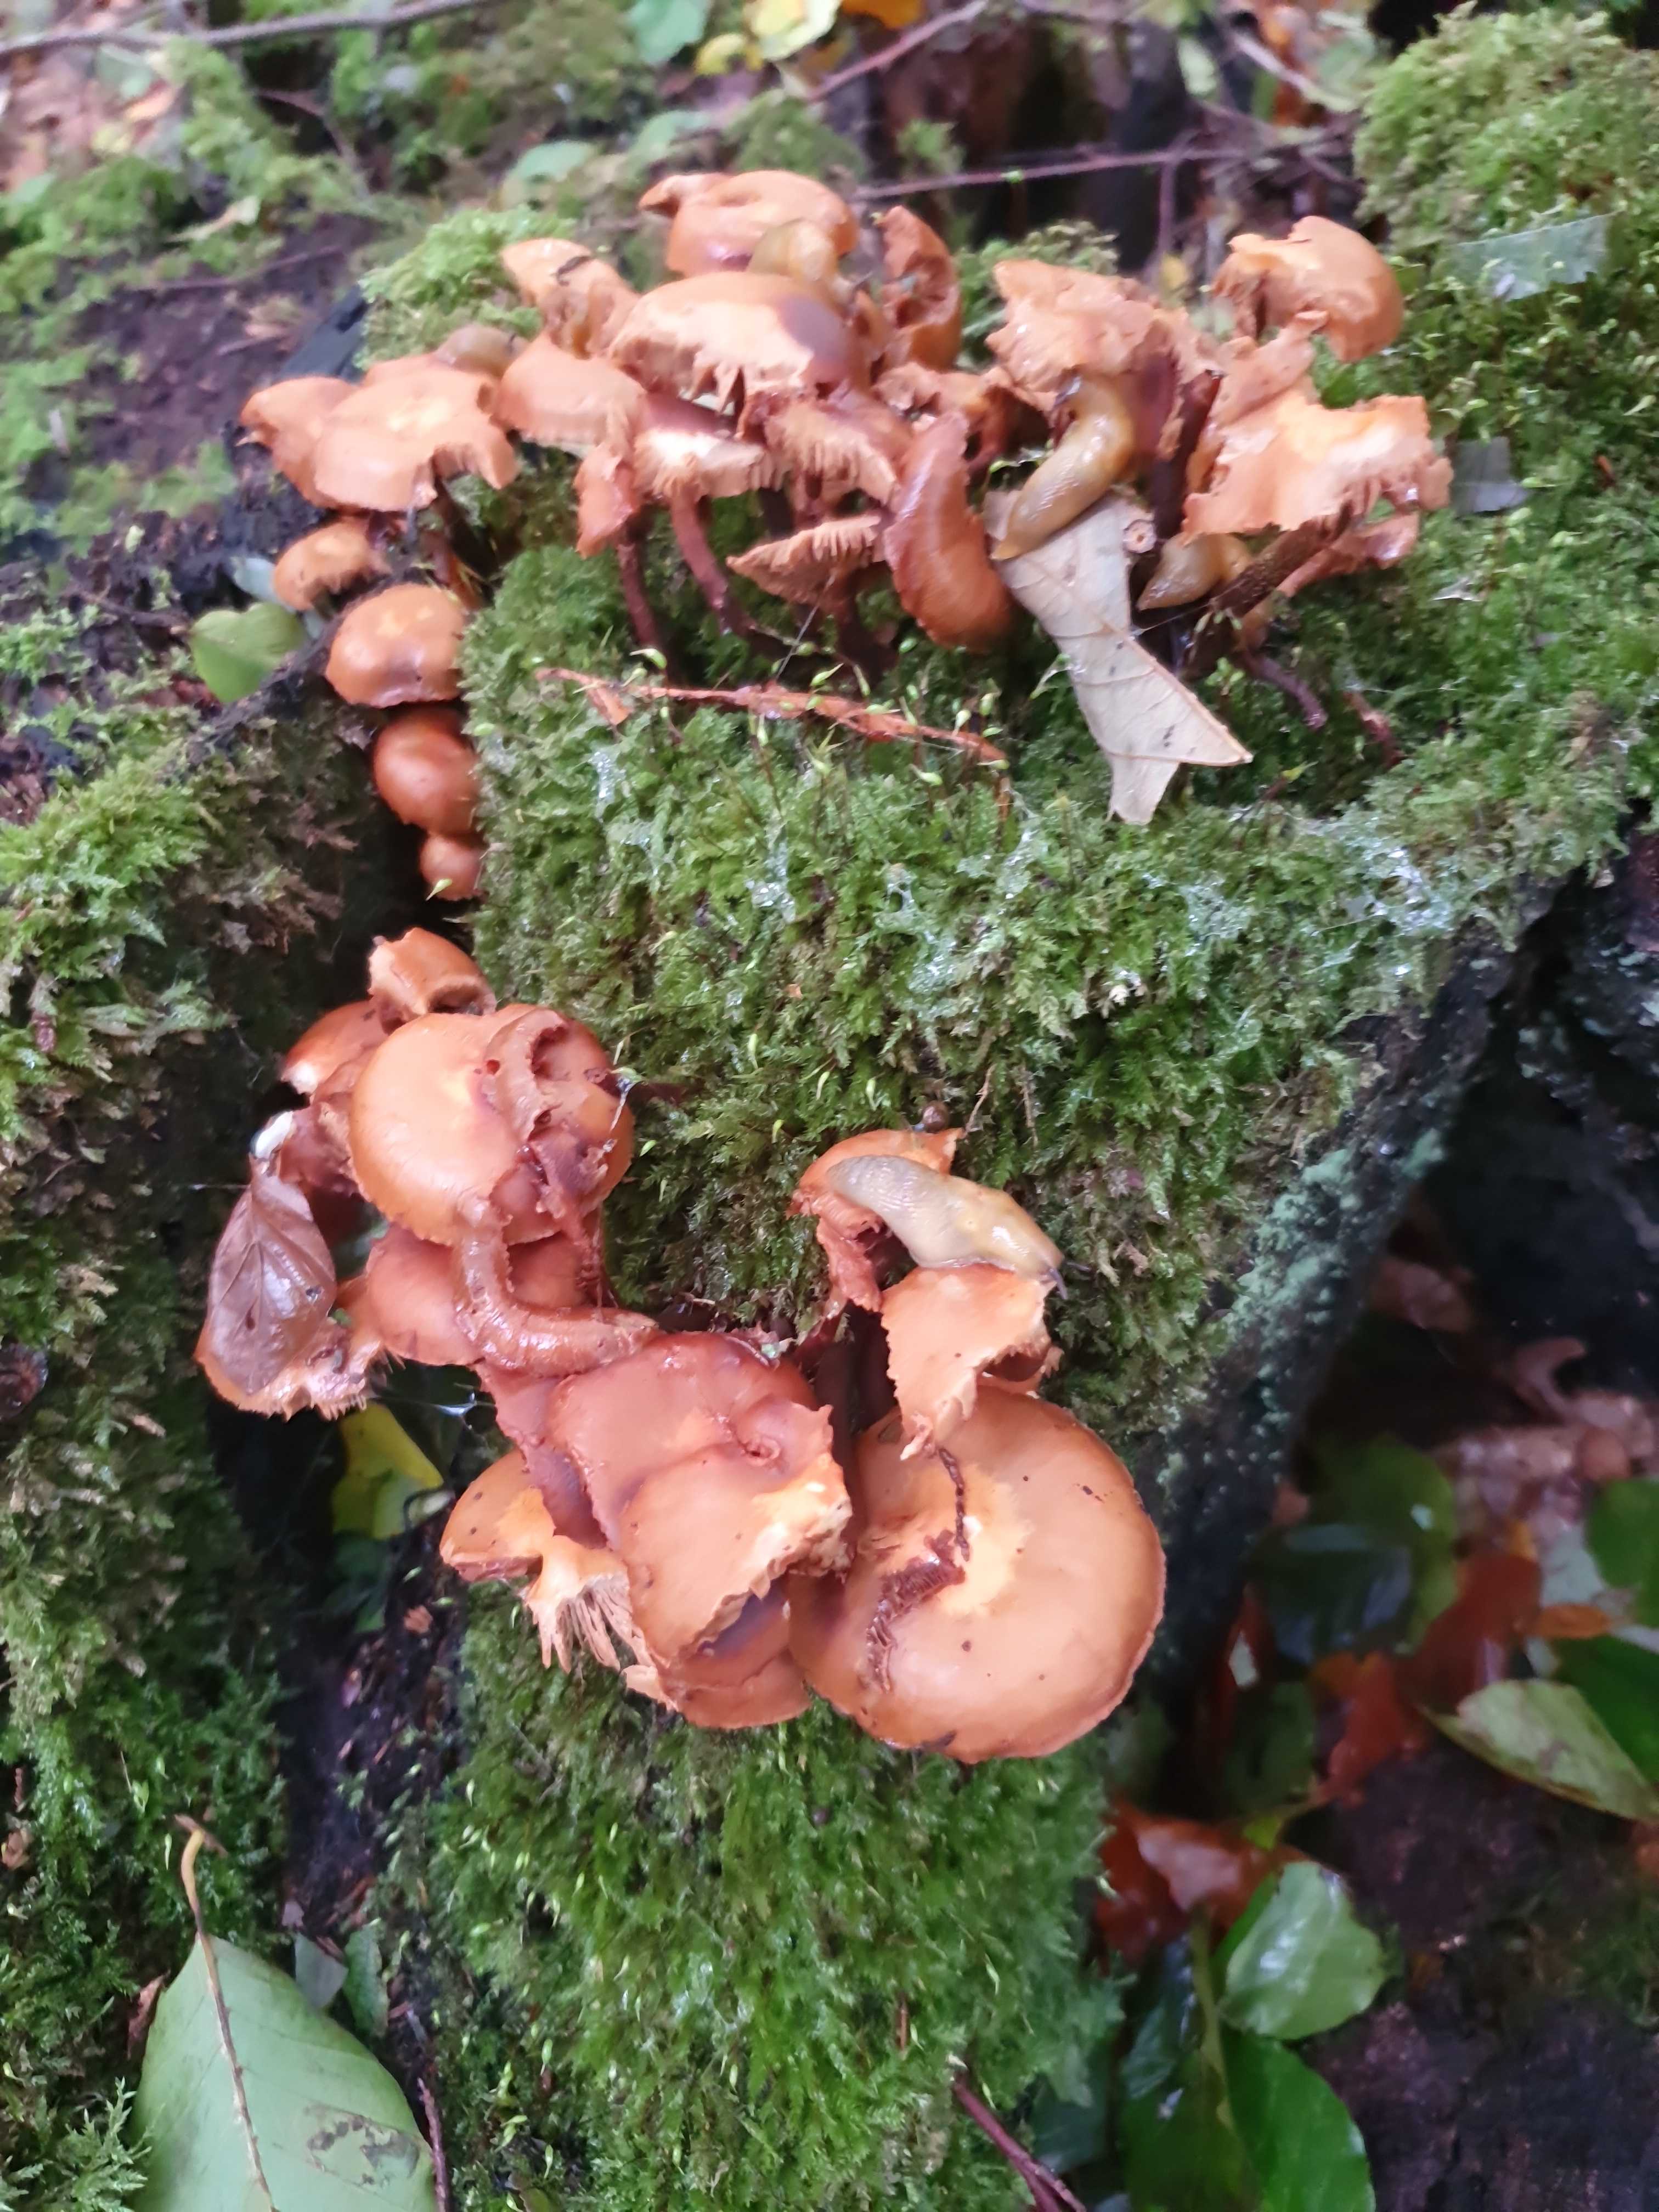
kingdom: Fungi
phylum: Basidiomycota
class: Agaricomycetes
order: Agaricales
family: Strophariaceae
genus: Kuehneromyces
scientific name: Kuehneromyces mutabilis
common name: foranderlig skælhat
